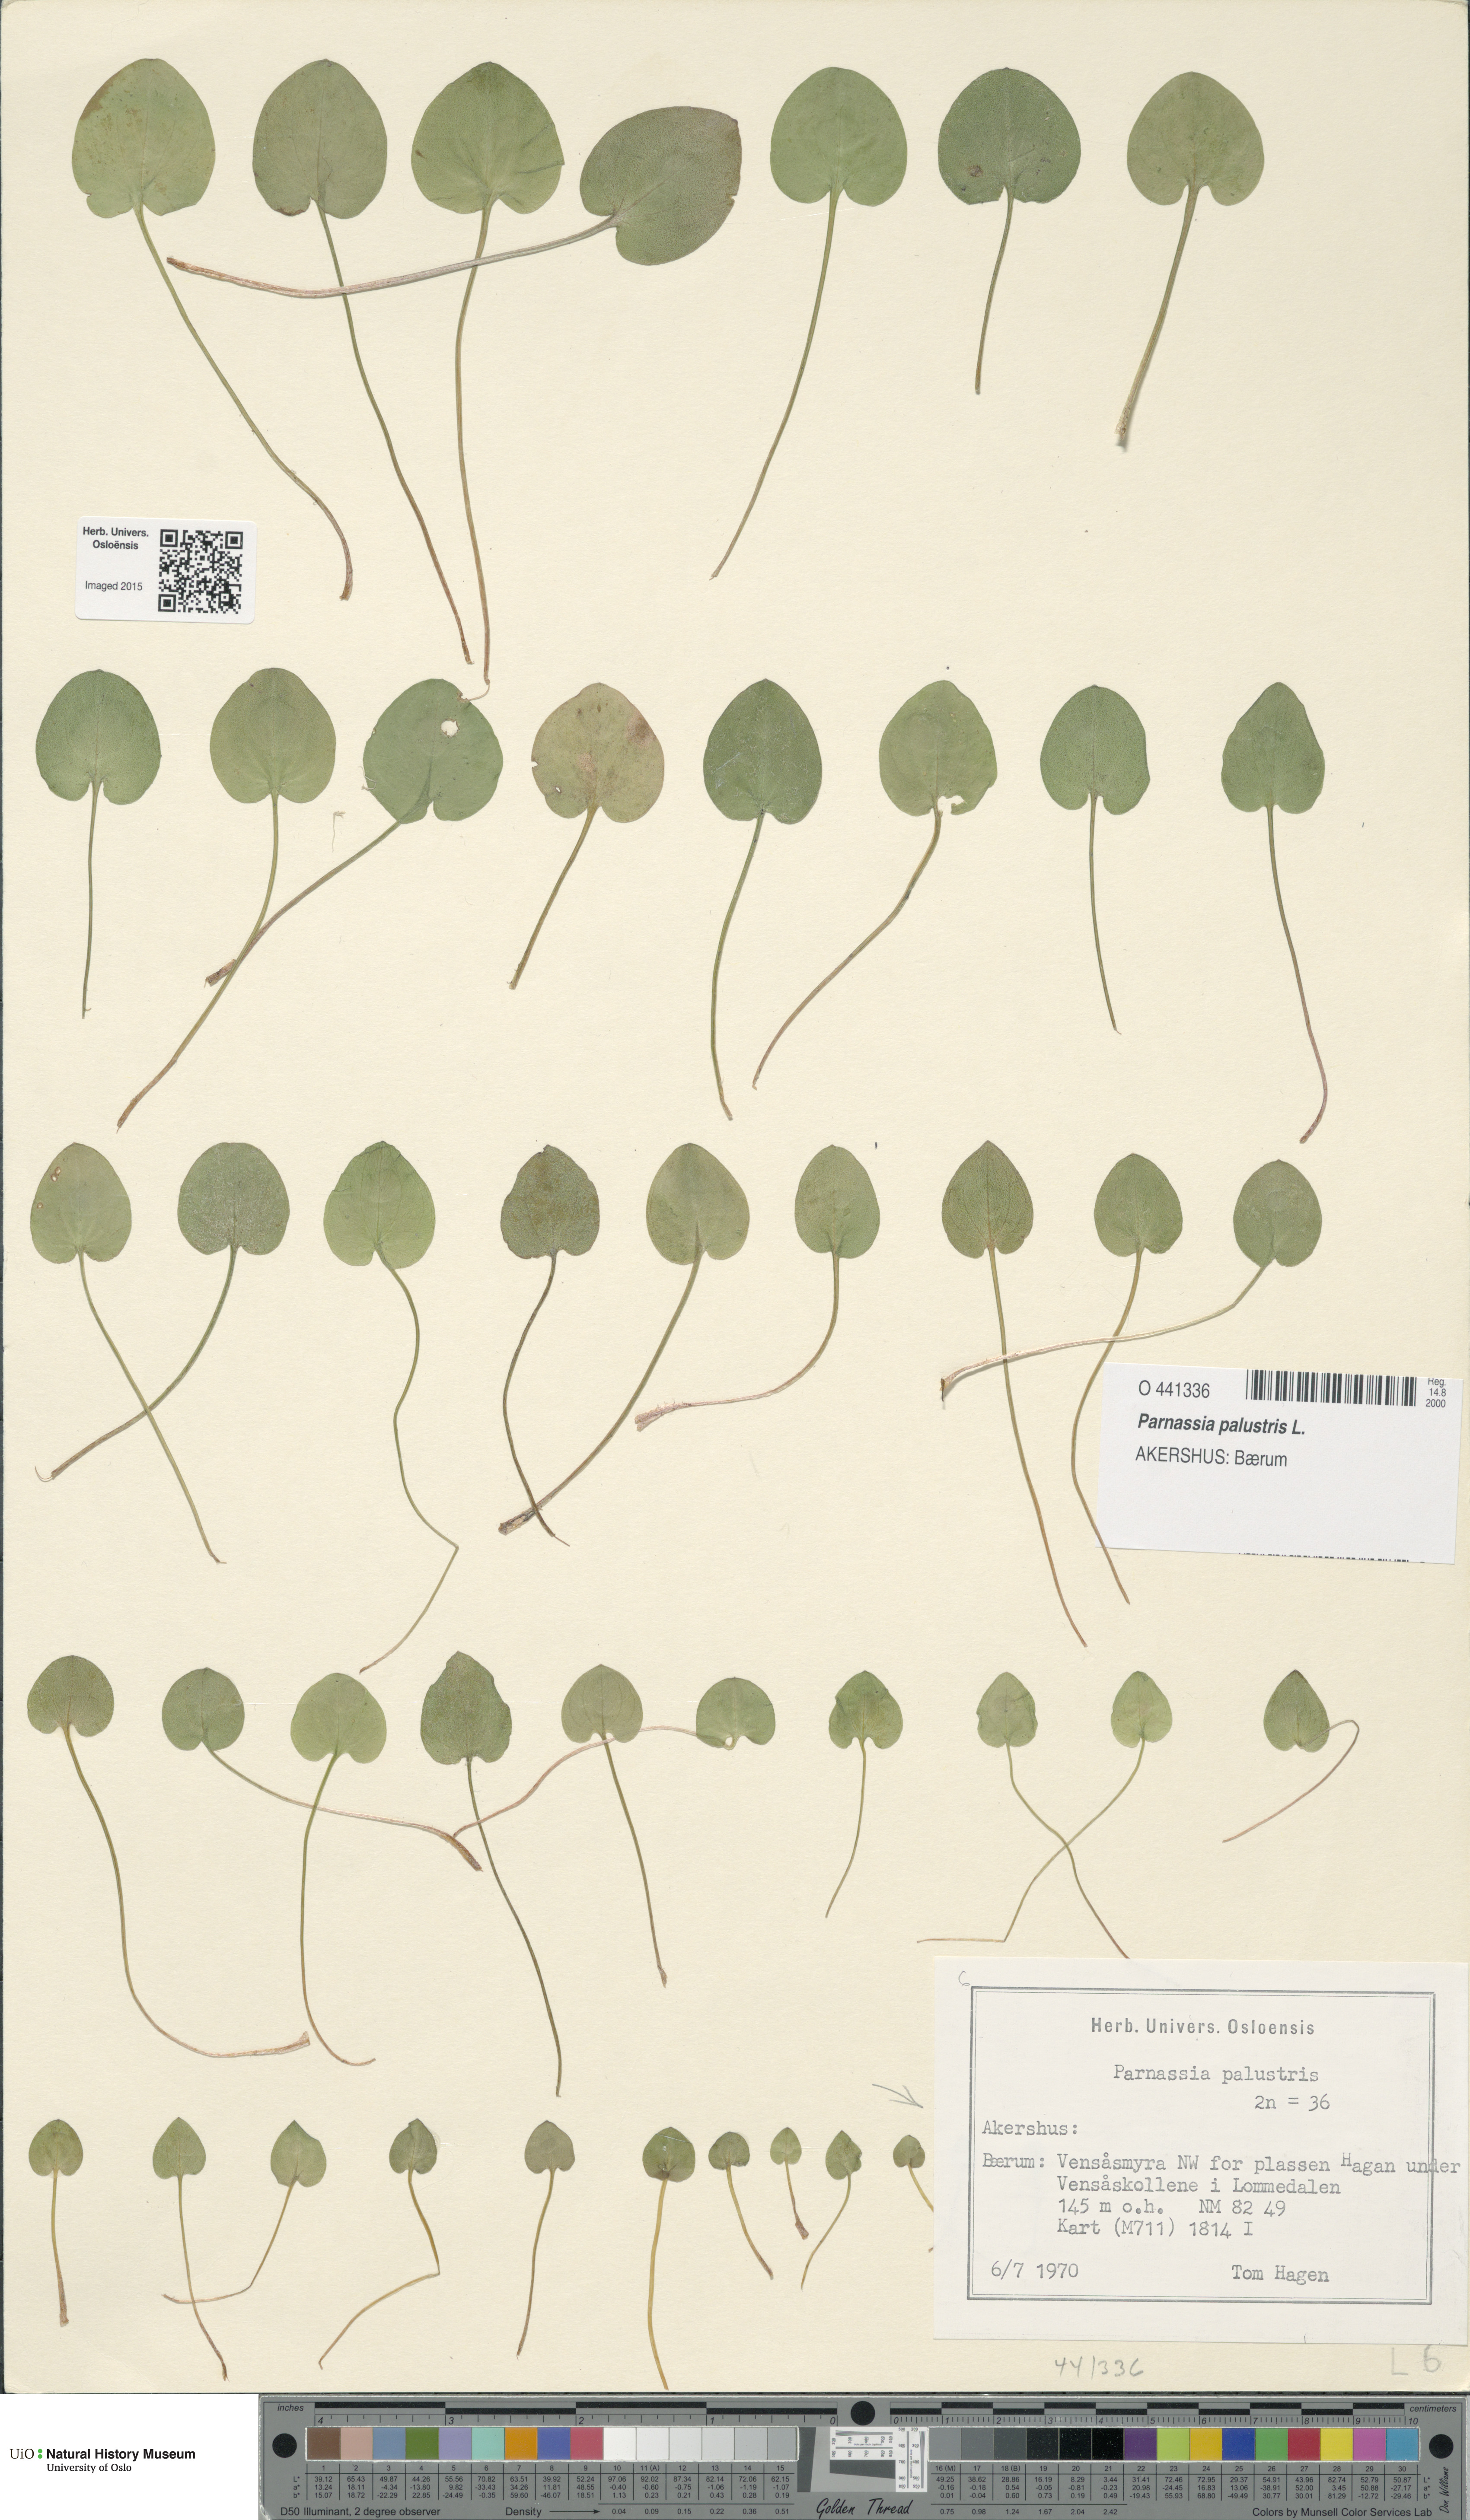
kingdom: Plantae
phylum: Tracheophyta
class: Magnoliopsida
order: Celastrales
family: Parnassiaceae
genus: Parnassia
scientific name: Parnassia palustris
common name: Grass-of-parnassus
